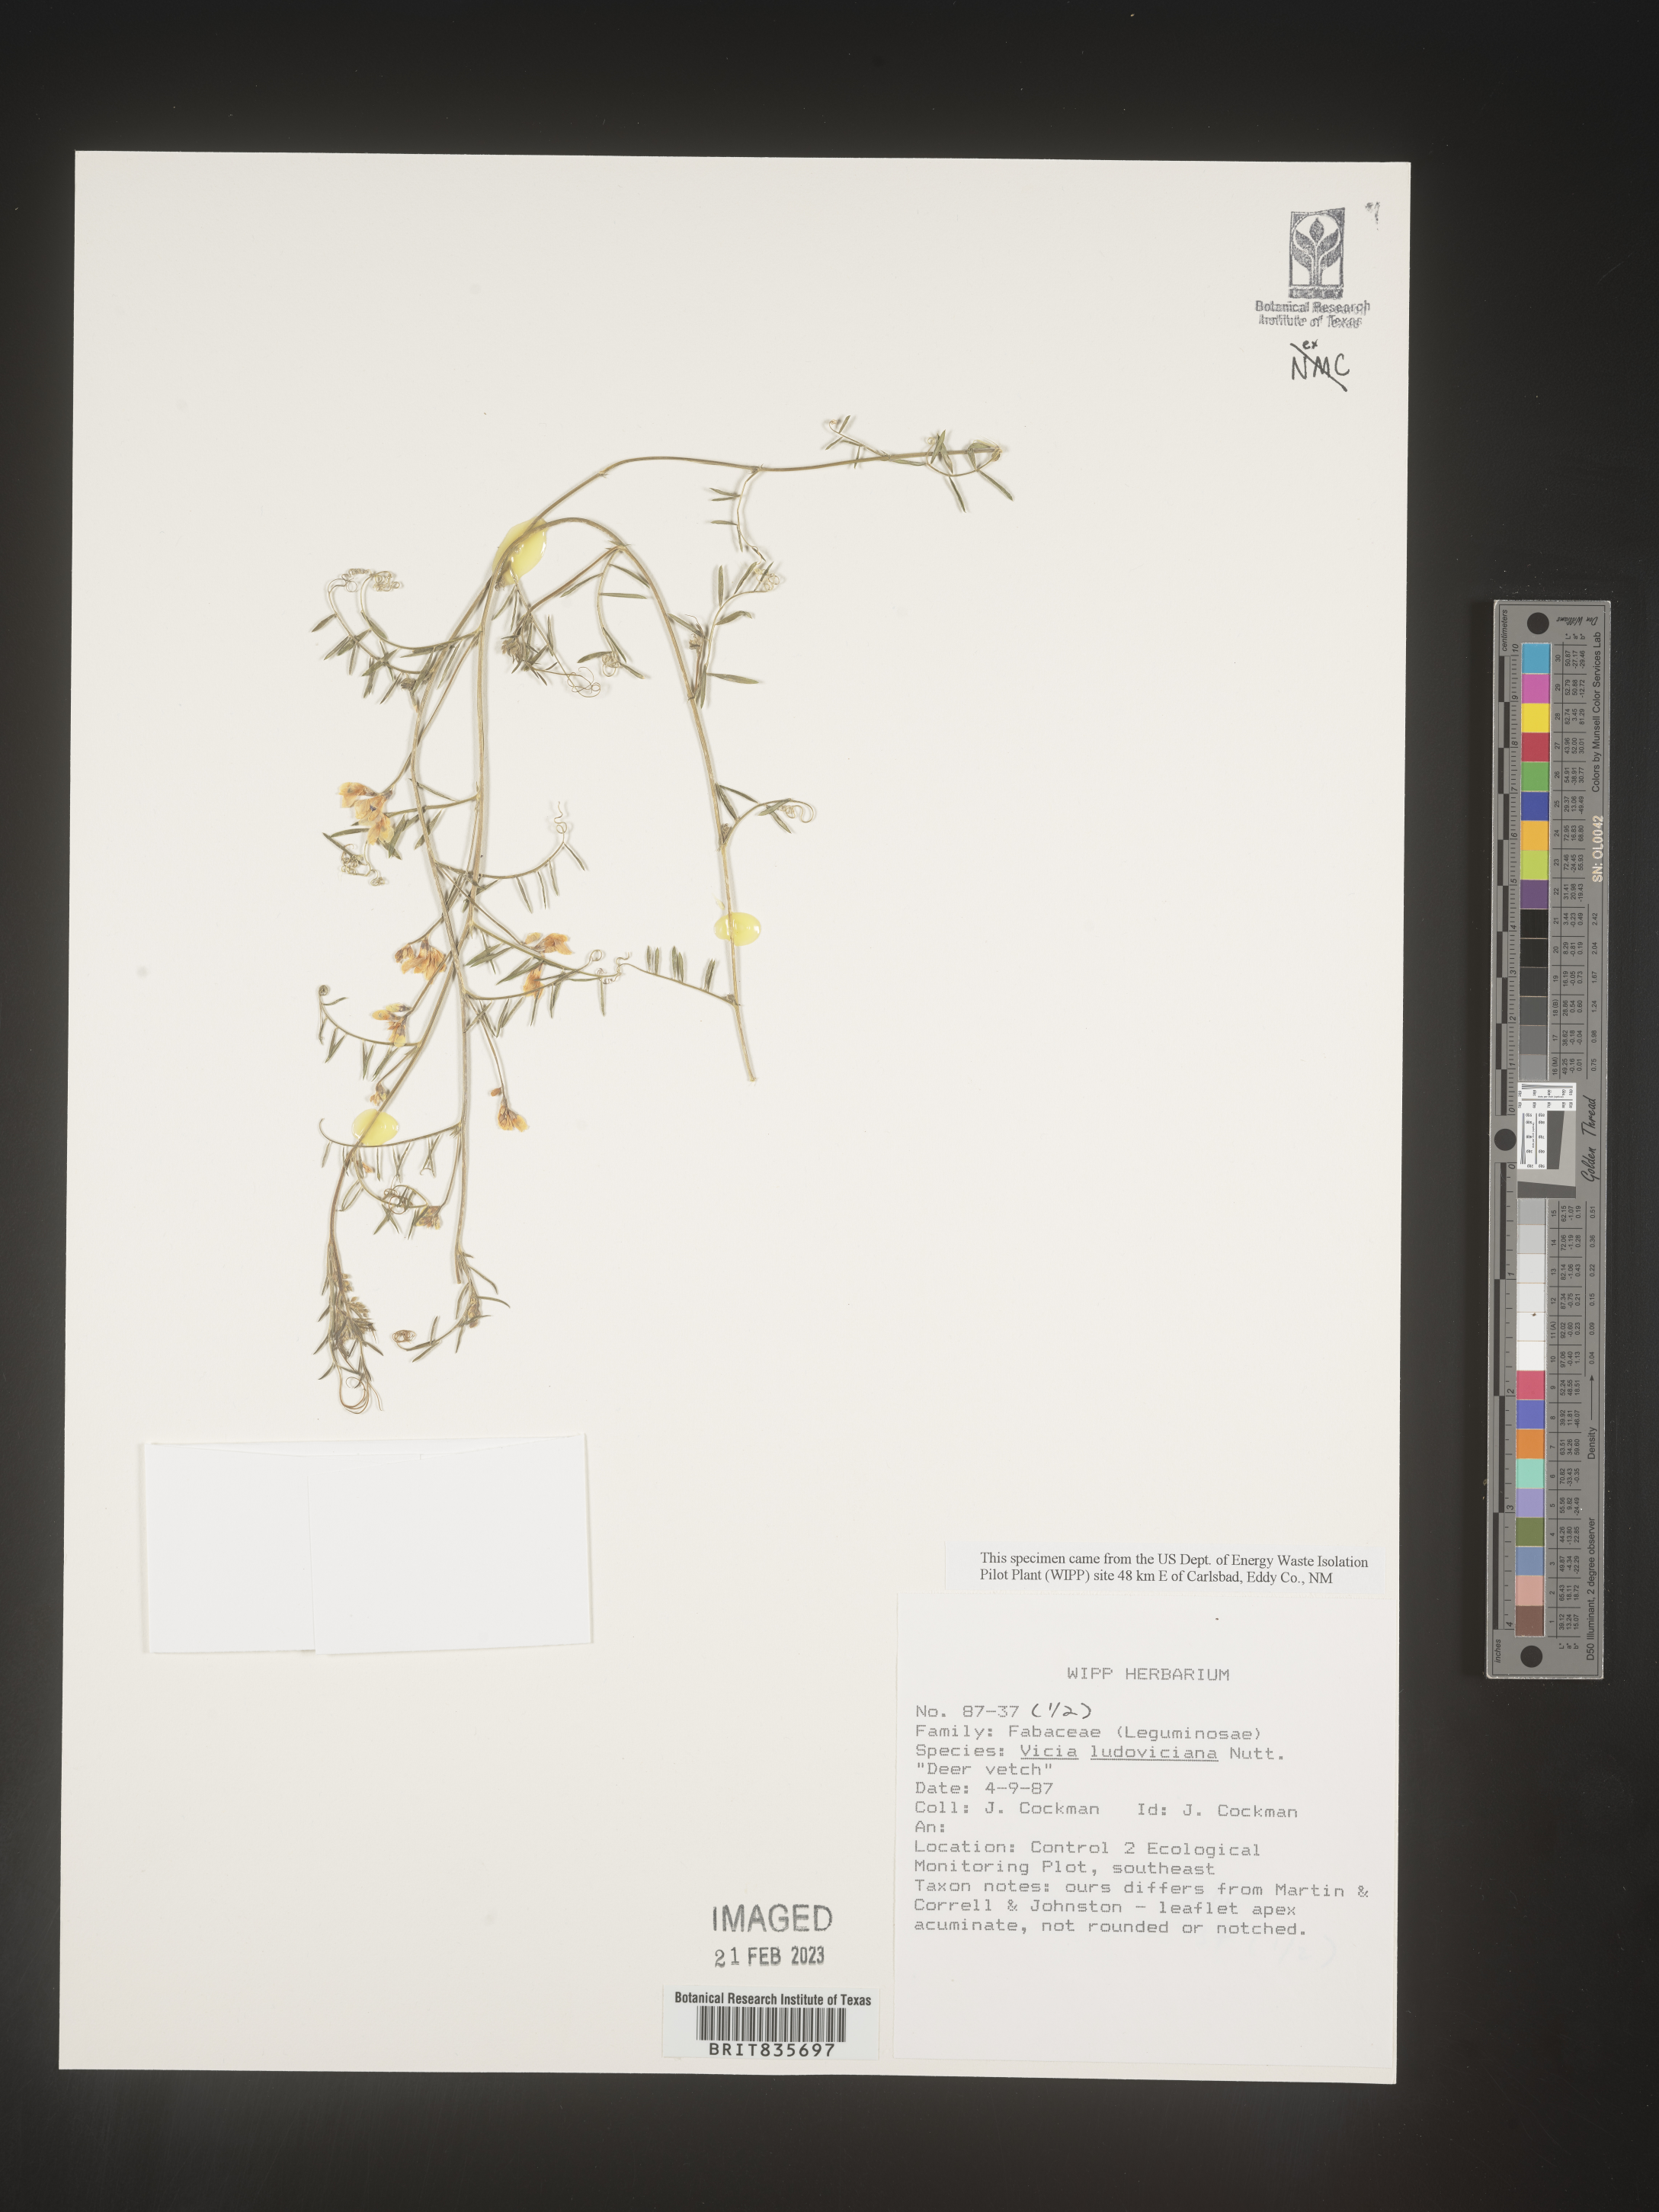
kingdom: Plantae
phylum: Tracheophyta
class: Magnoliopsida
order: Fabales
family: Fabaceae
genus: Vicia
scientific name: Vicia ludoviciana
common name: Louisiana vetch
